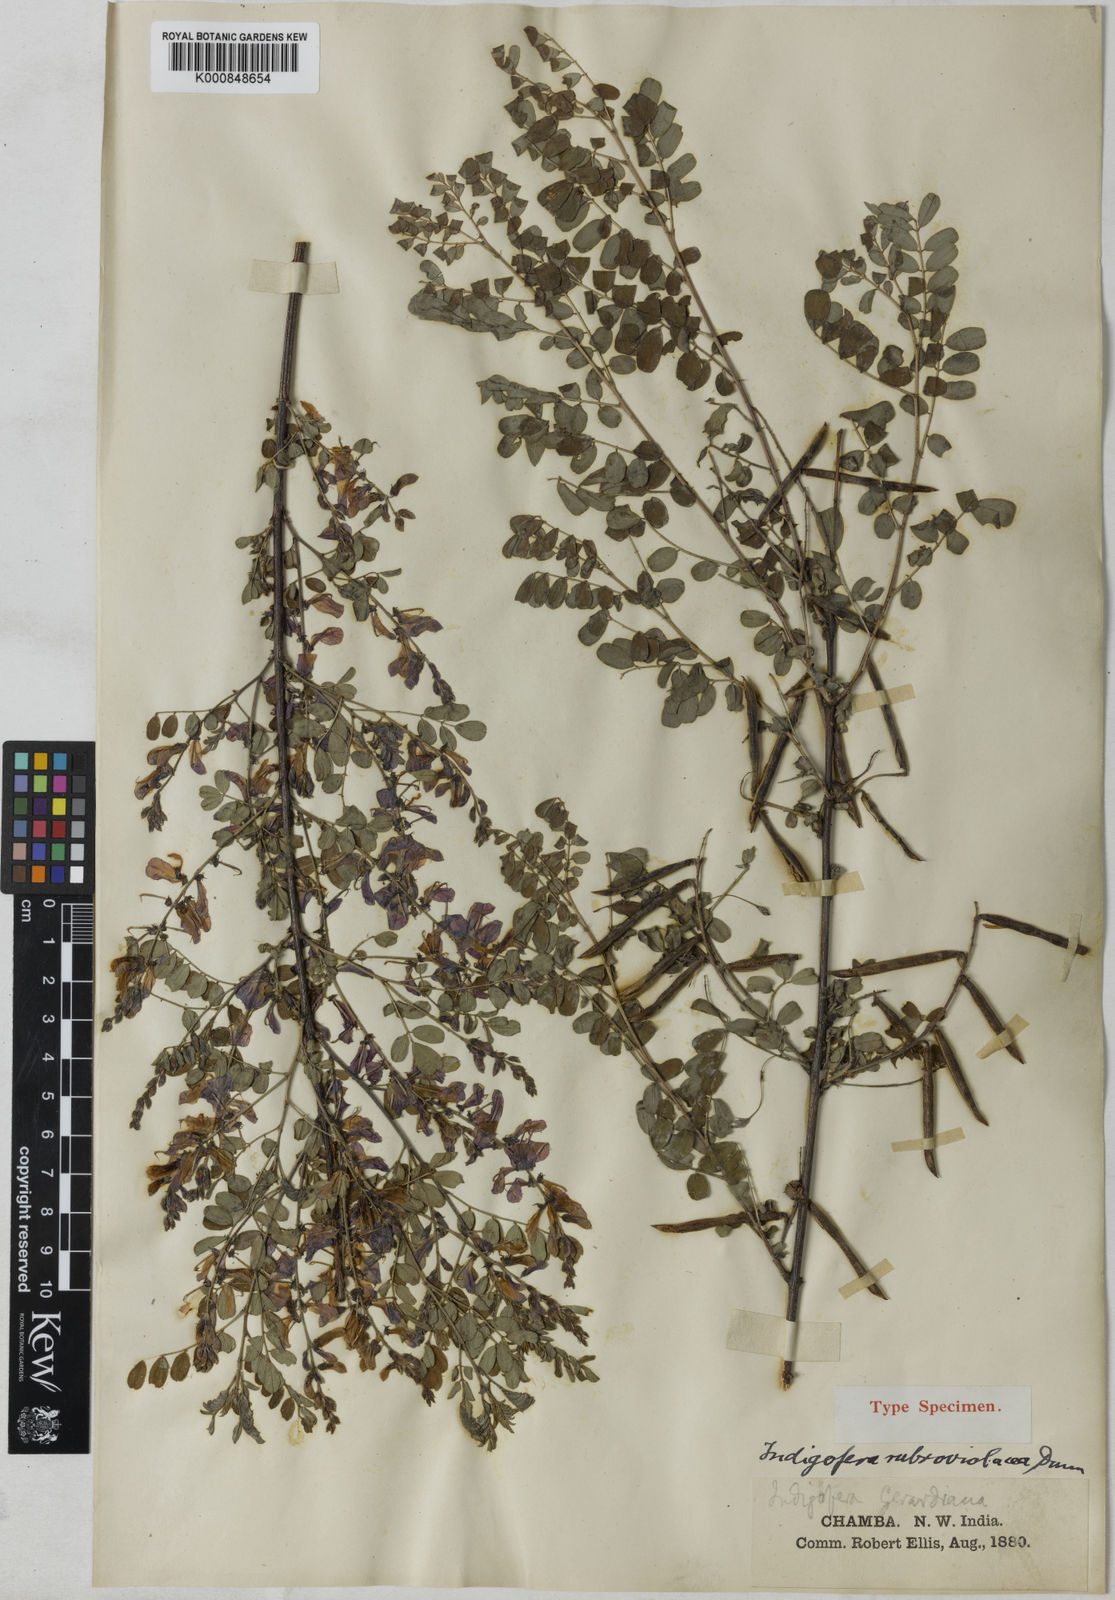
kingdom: Plantae
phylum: Tracheophyta
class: Magnoliopsida
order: Fabales
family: Fabaceae
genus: Indigofera
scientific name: Indigofera heterantha
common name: Himalayan indigo
